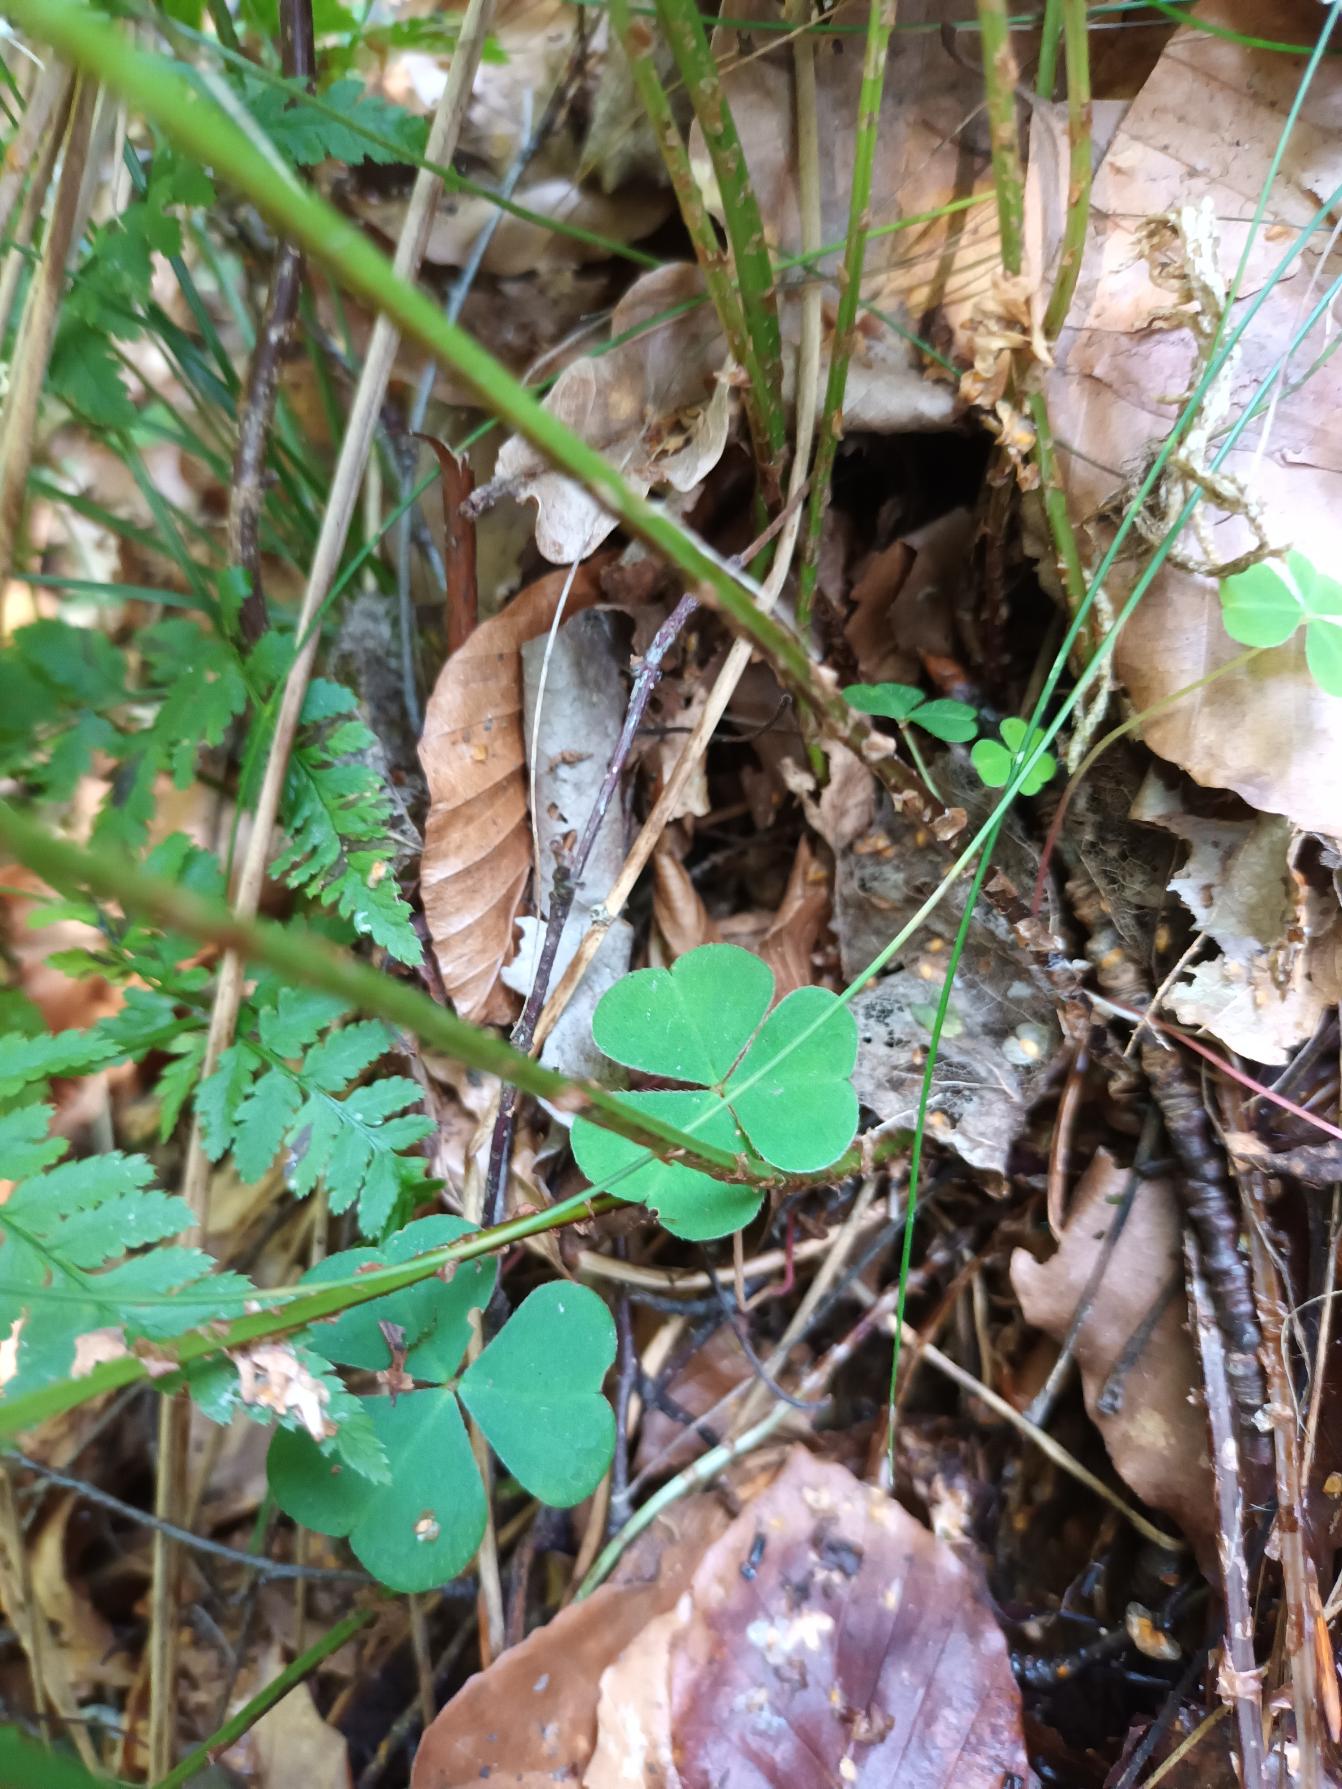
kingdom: Plantae
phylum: Tracheophyta
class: Polypodiopsida
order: Polypodiales
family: Dryopteridaceae
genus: Dryopteris
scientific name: Dryopteris carthusiana
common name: Smalbladet mangeløv
